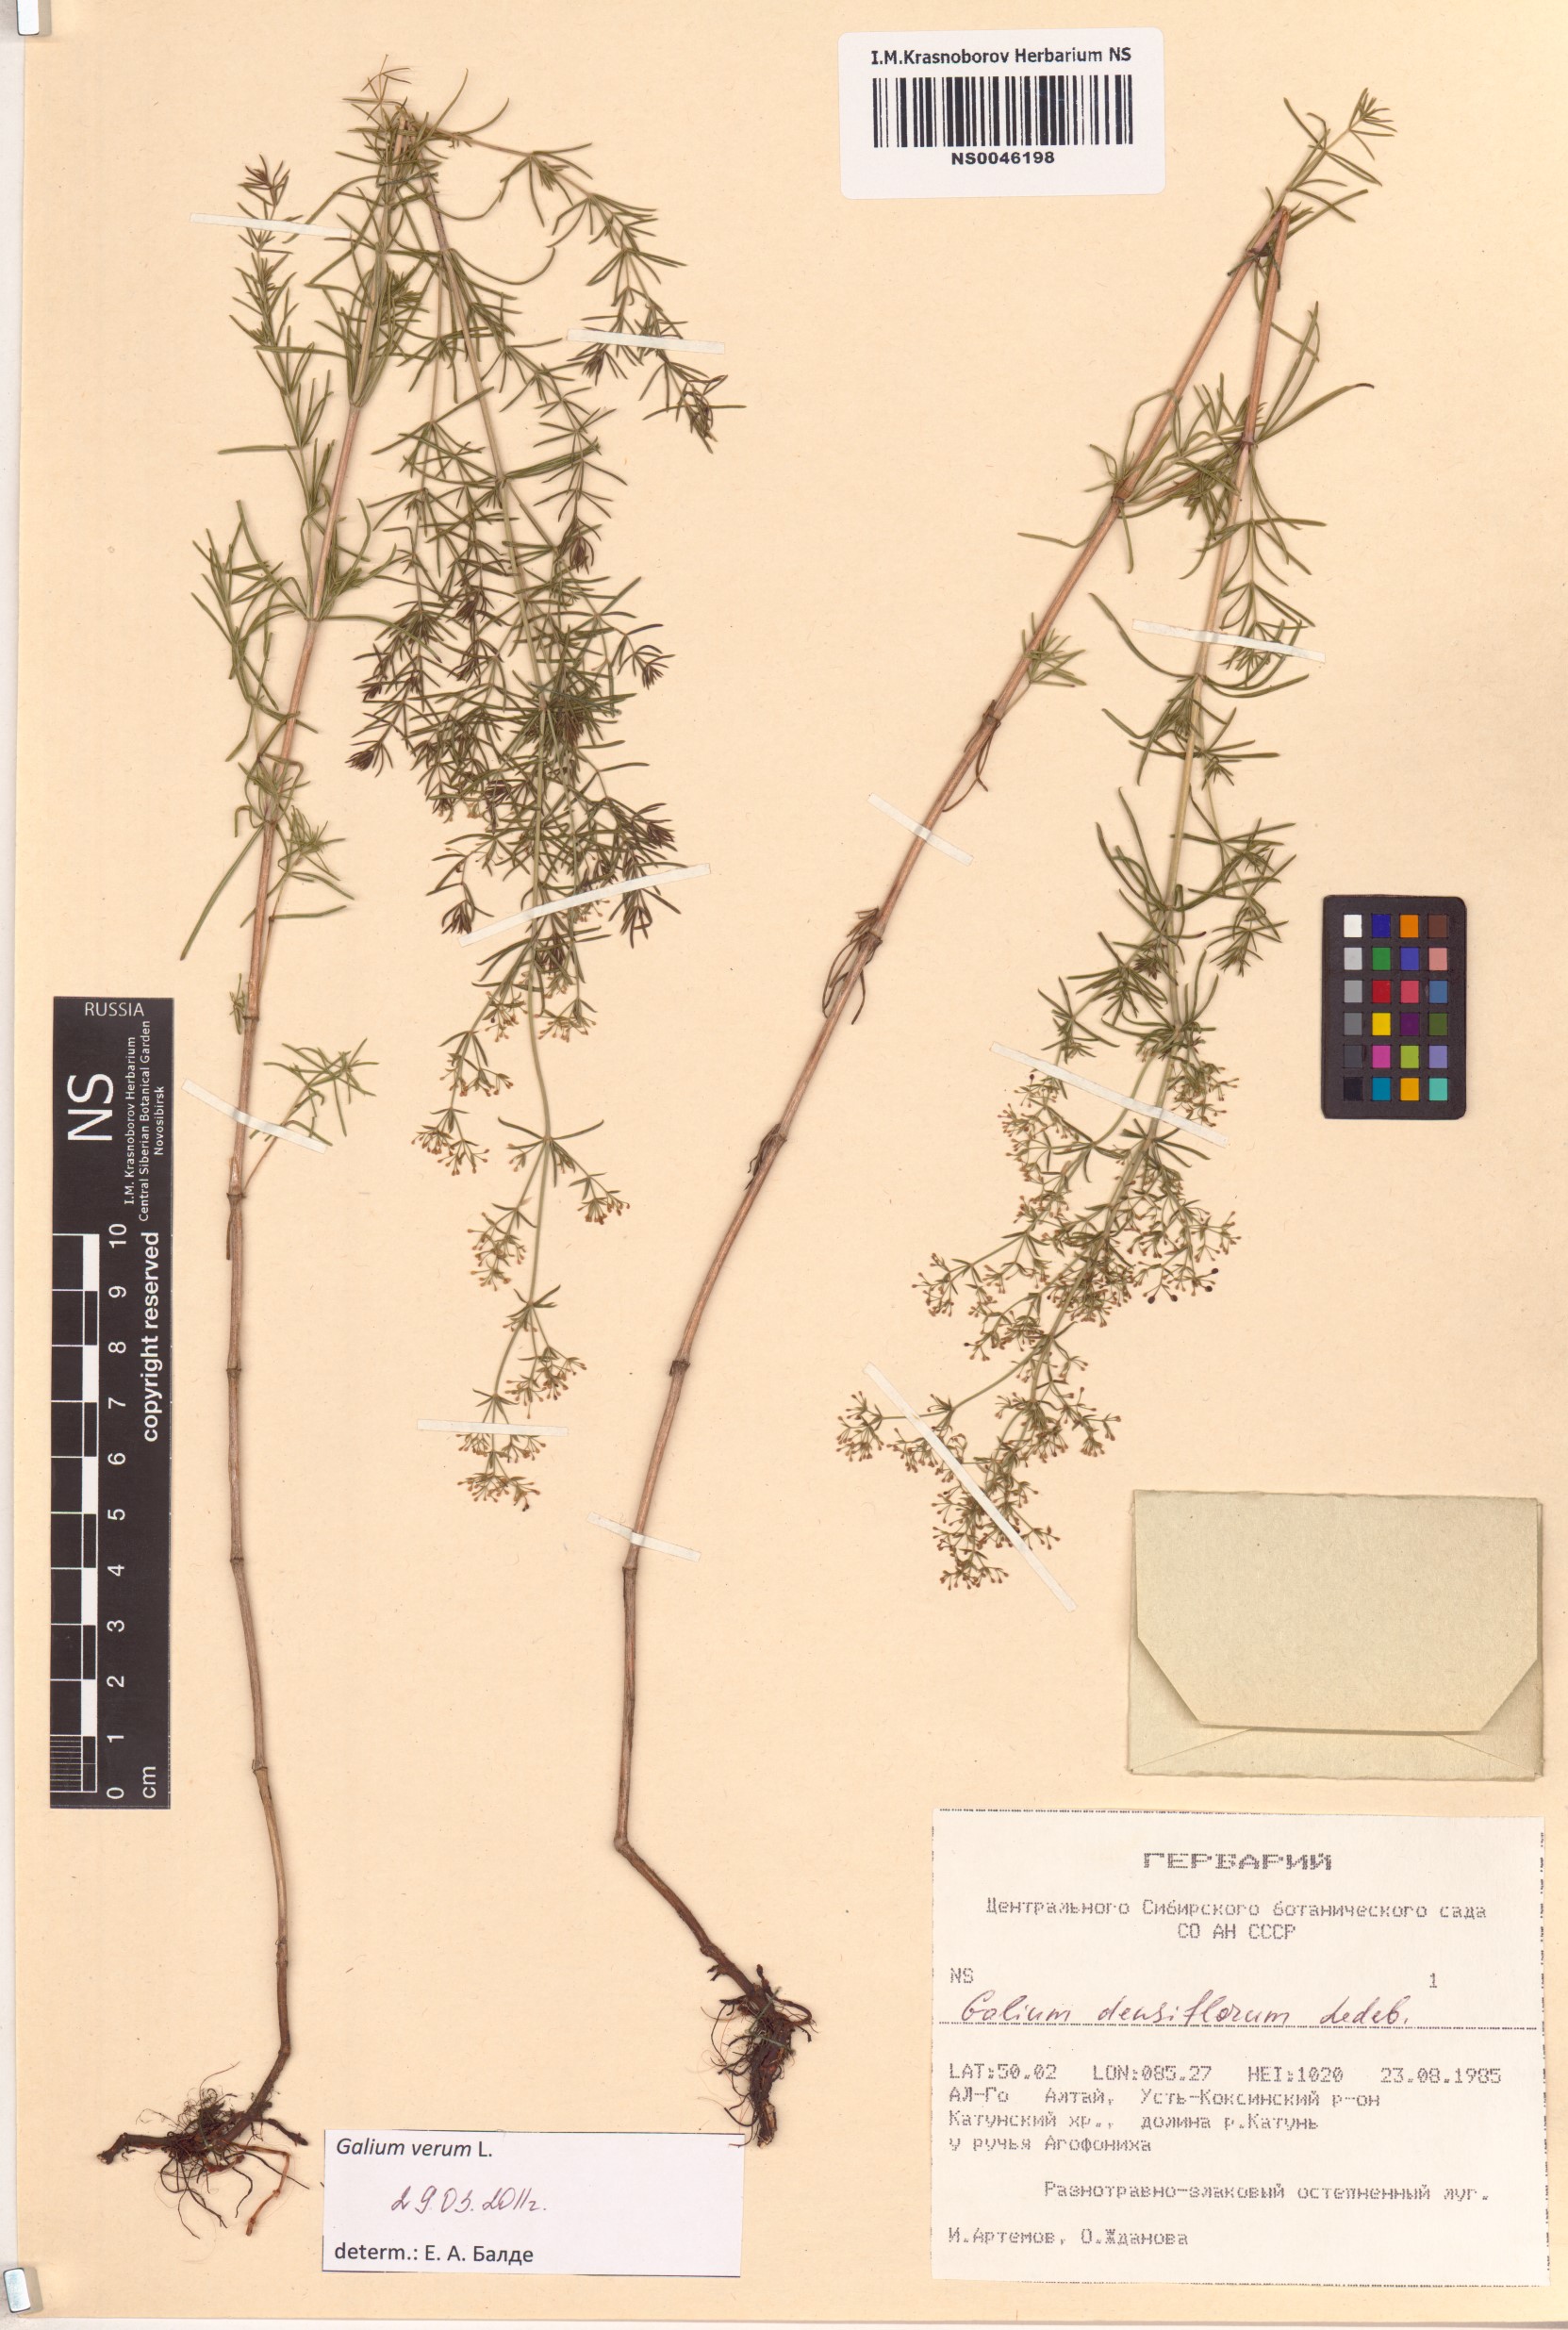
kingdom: Plantae
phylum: Tracheophyta
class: Magnoliopsida
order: Gentianales
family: Rubiaceae
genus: Galium
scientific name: Galium verum
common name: Lady's bedstraw
